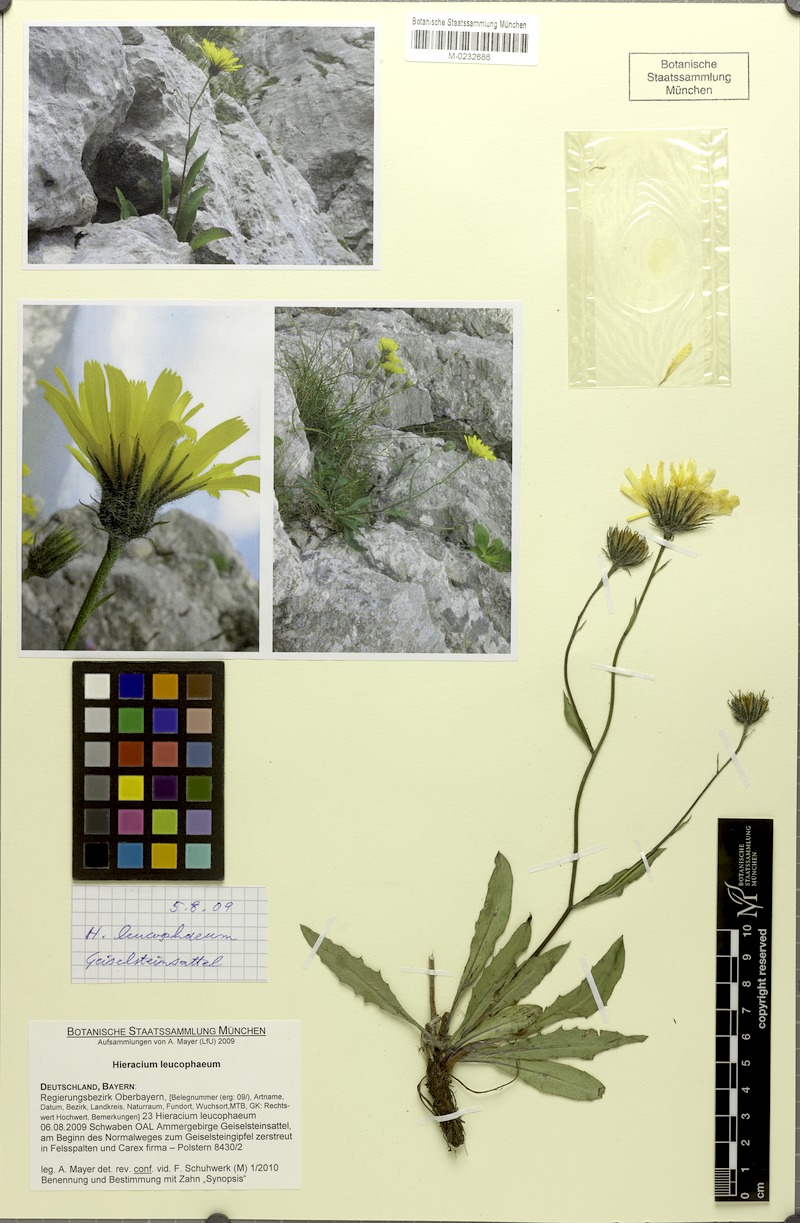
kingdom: Plantae
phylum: Tracheophyta
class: Magnoliopsida
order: Asterales
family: Asteraceae
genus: Hieracium
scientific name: Hieracium leucophaeum
